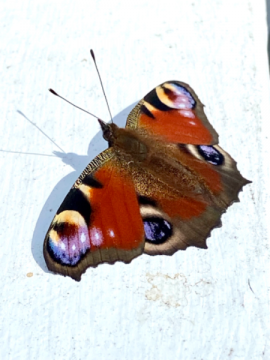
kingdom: Animalia
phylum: Arthropoda
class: Insecta
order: Lepidoptera
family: Nymphalidae
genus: Aglais
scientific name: Aglais io
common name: European Peacock
